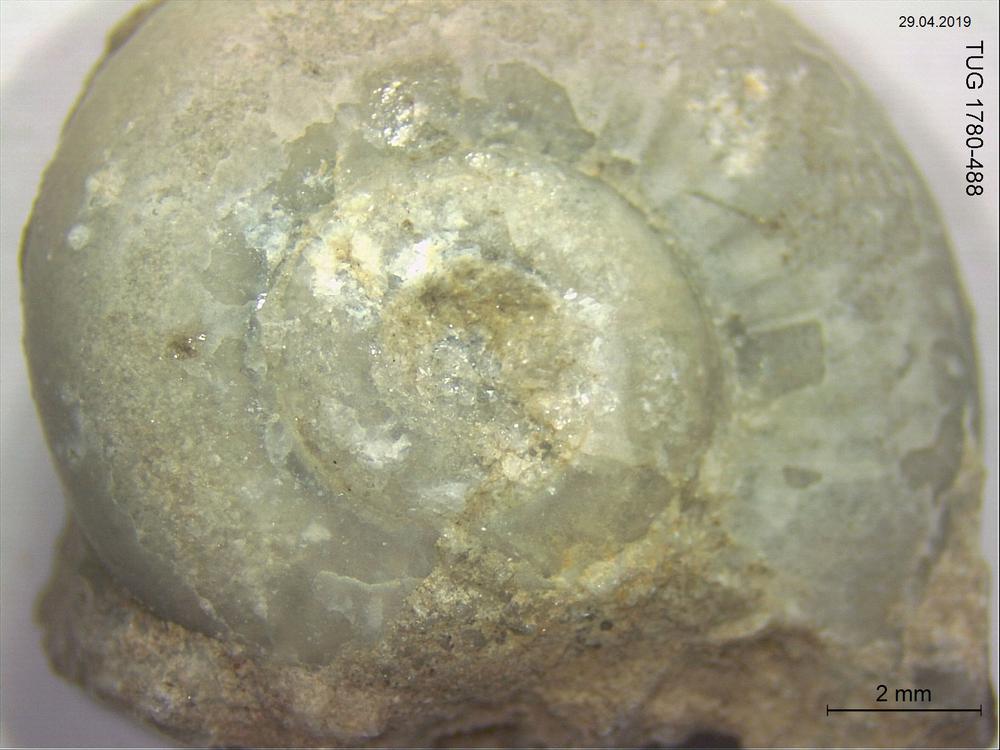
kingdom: Animalia
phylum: Mollusca
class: Gastropoda
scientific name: Gastropoda
